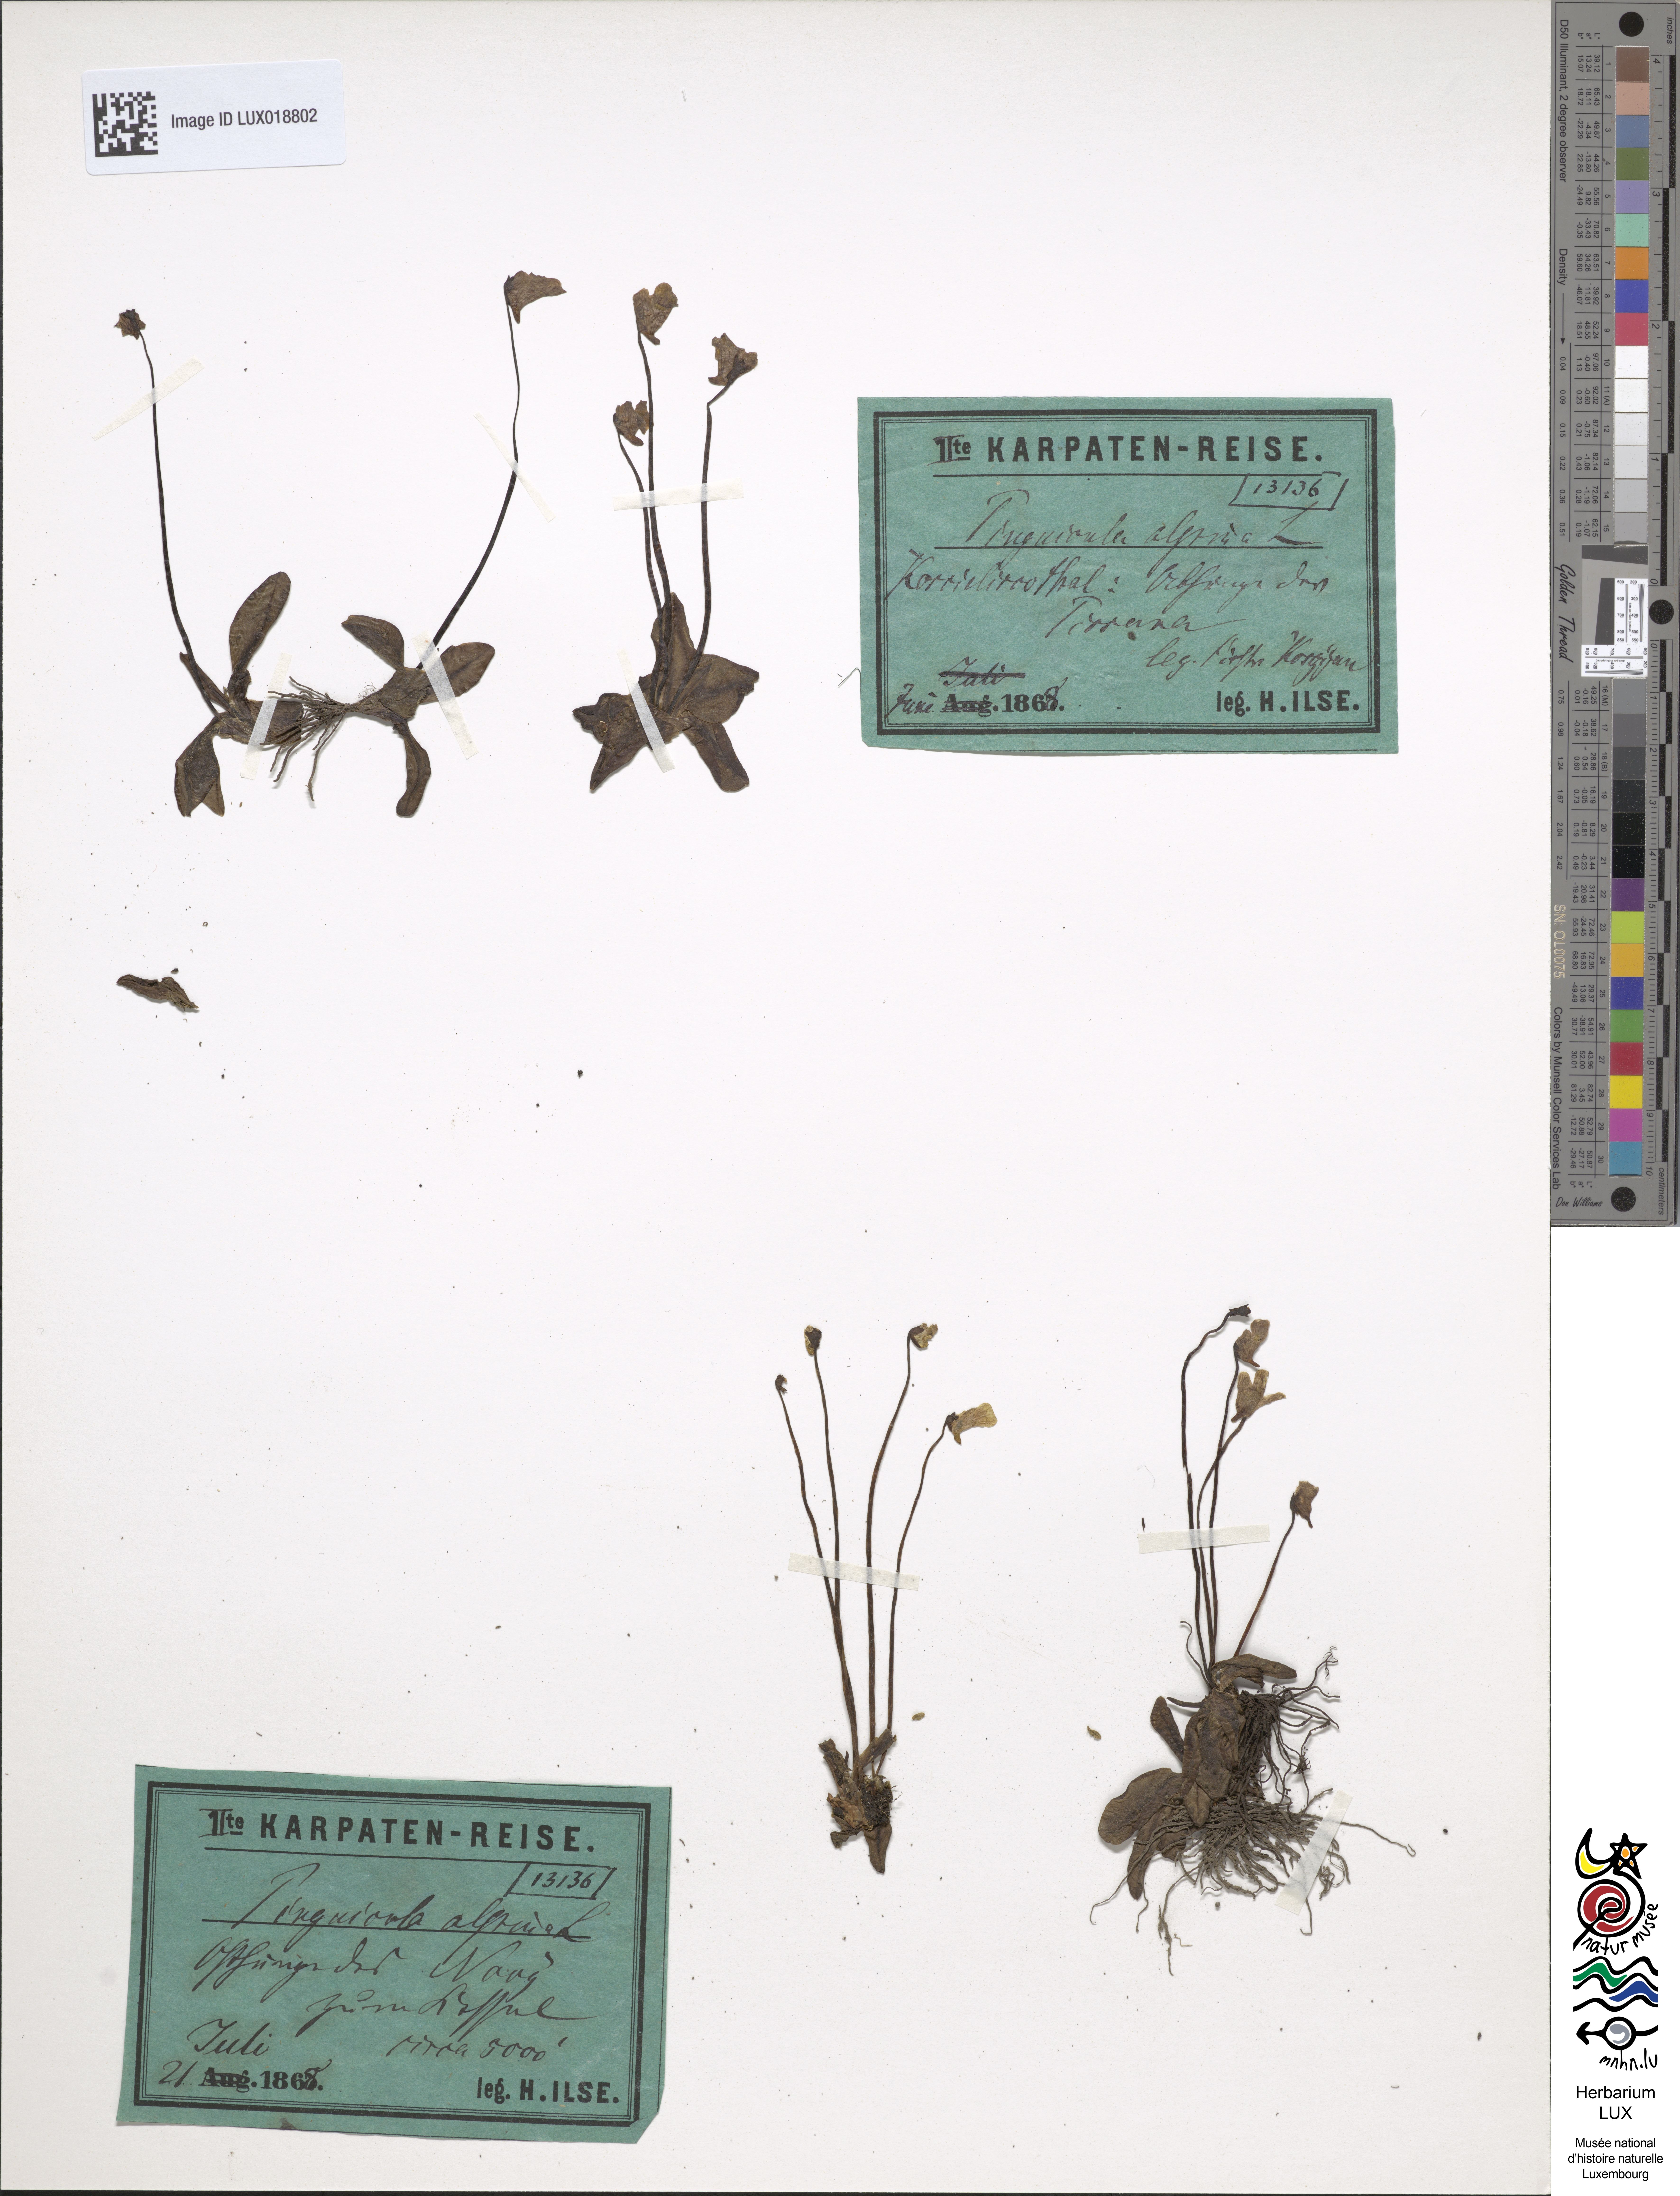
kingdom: Plantae
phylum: Tracheophyta
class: Magnoliopsida
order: Lamiales
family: Lentibulariaceae
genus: Pinguicula
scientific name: Pinguicula alpina
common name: Alpine butterwort
